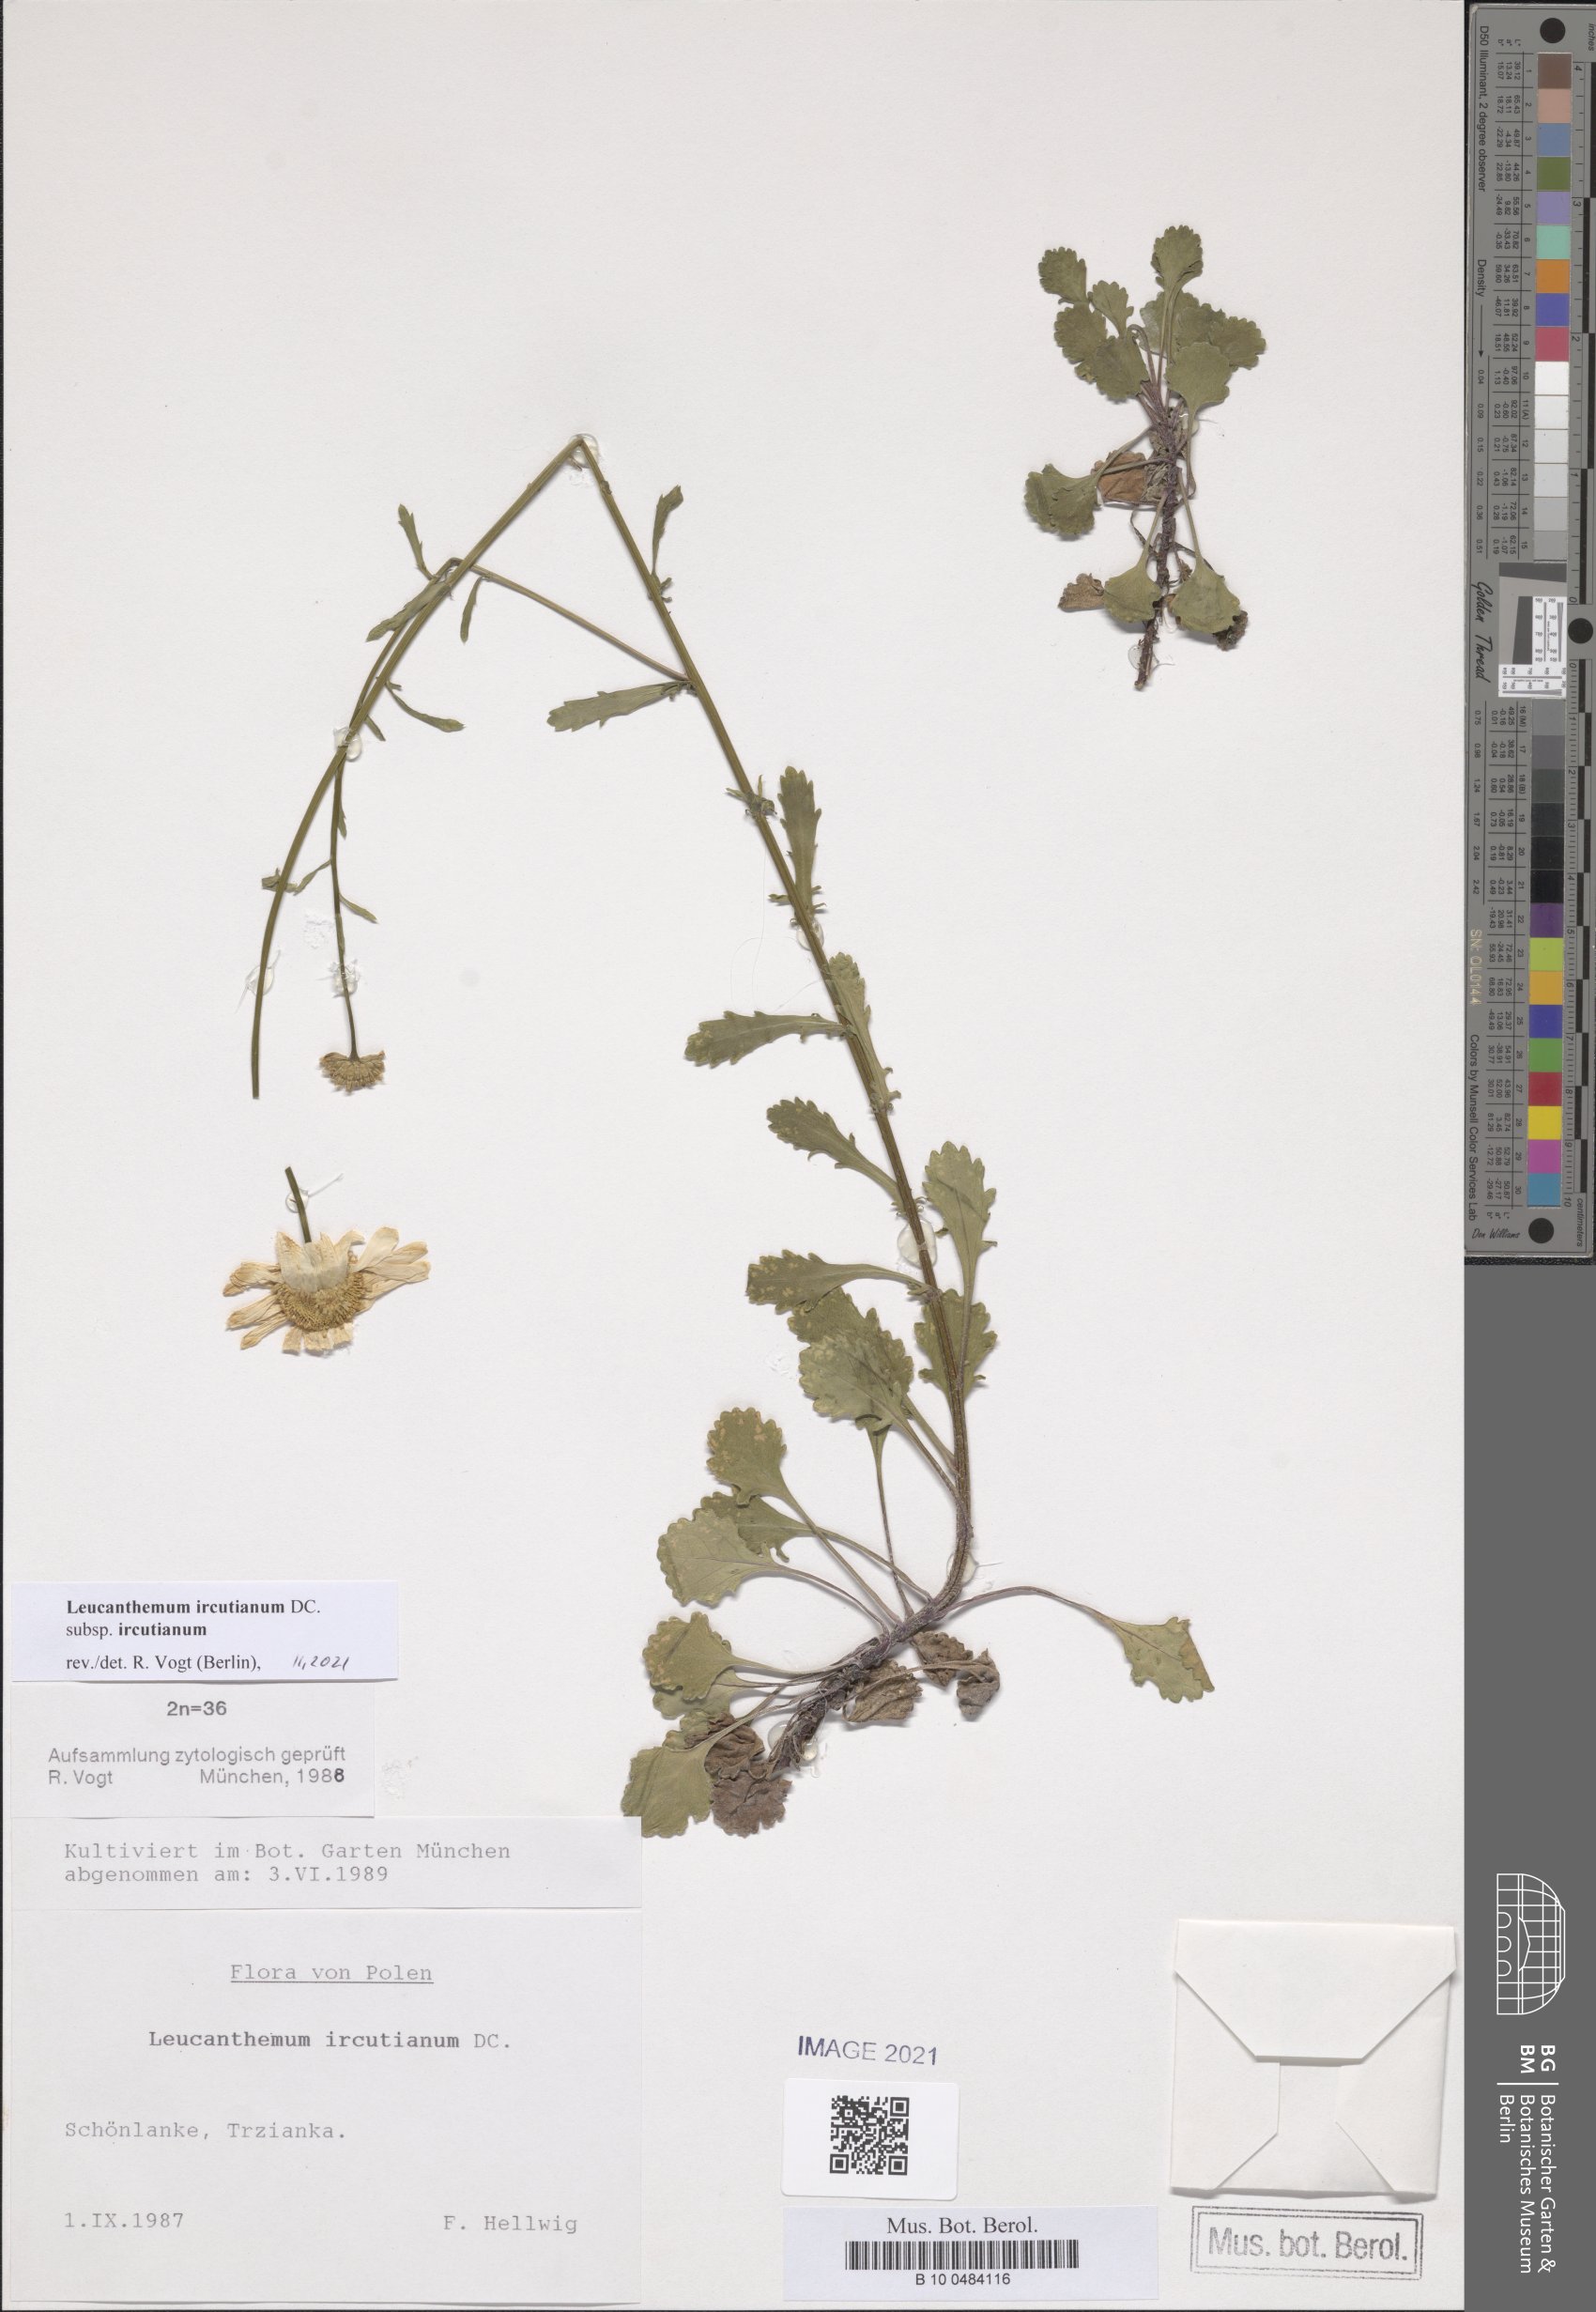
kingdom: Plantae
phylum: Tracheophyta
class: Magnoliopsida
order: Asterales
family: Asteraceae
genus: Leucanthemum
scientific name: Leucanthemum ircutianum
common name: Daisy
